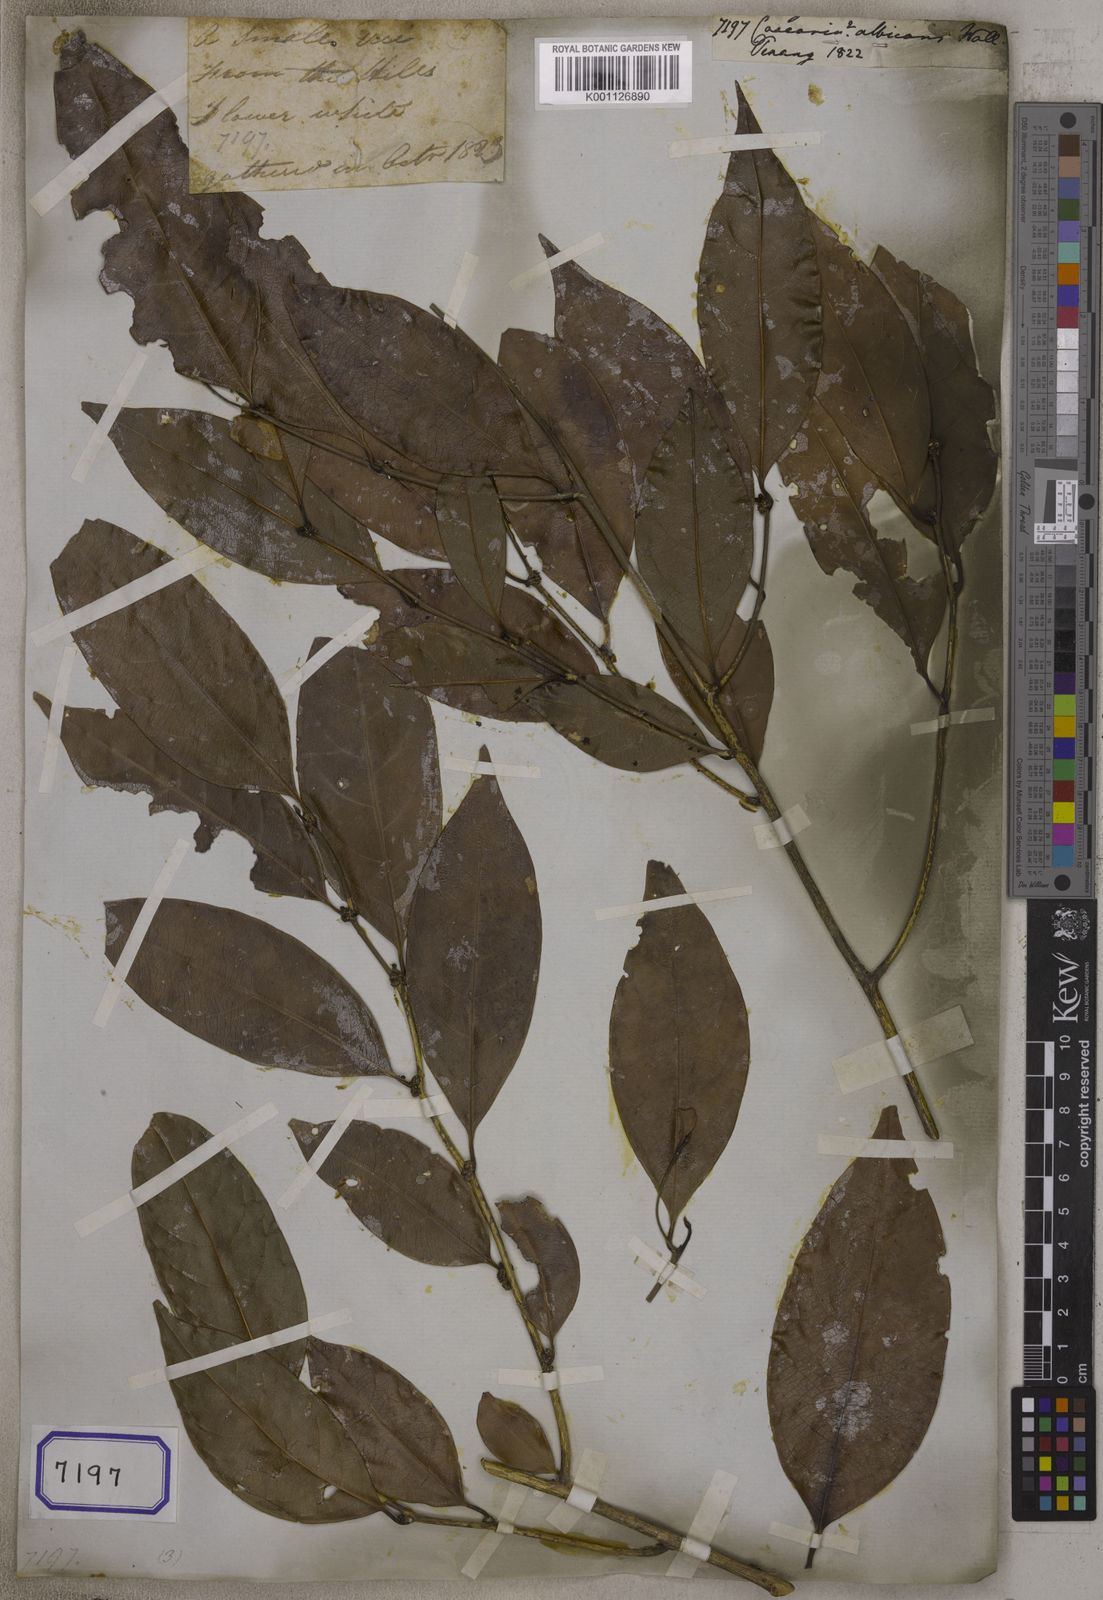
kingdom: Plantae
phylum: Tracheophyta
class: Magnoliopsida
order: Malpighiales
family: Salicaceae
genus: Casearia
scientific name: Casearia
